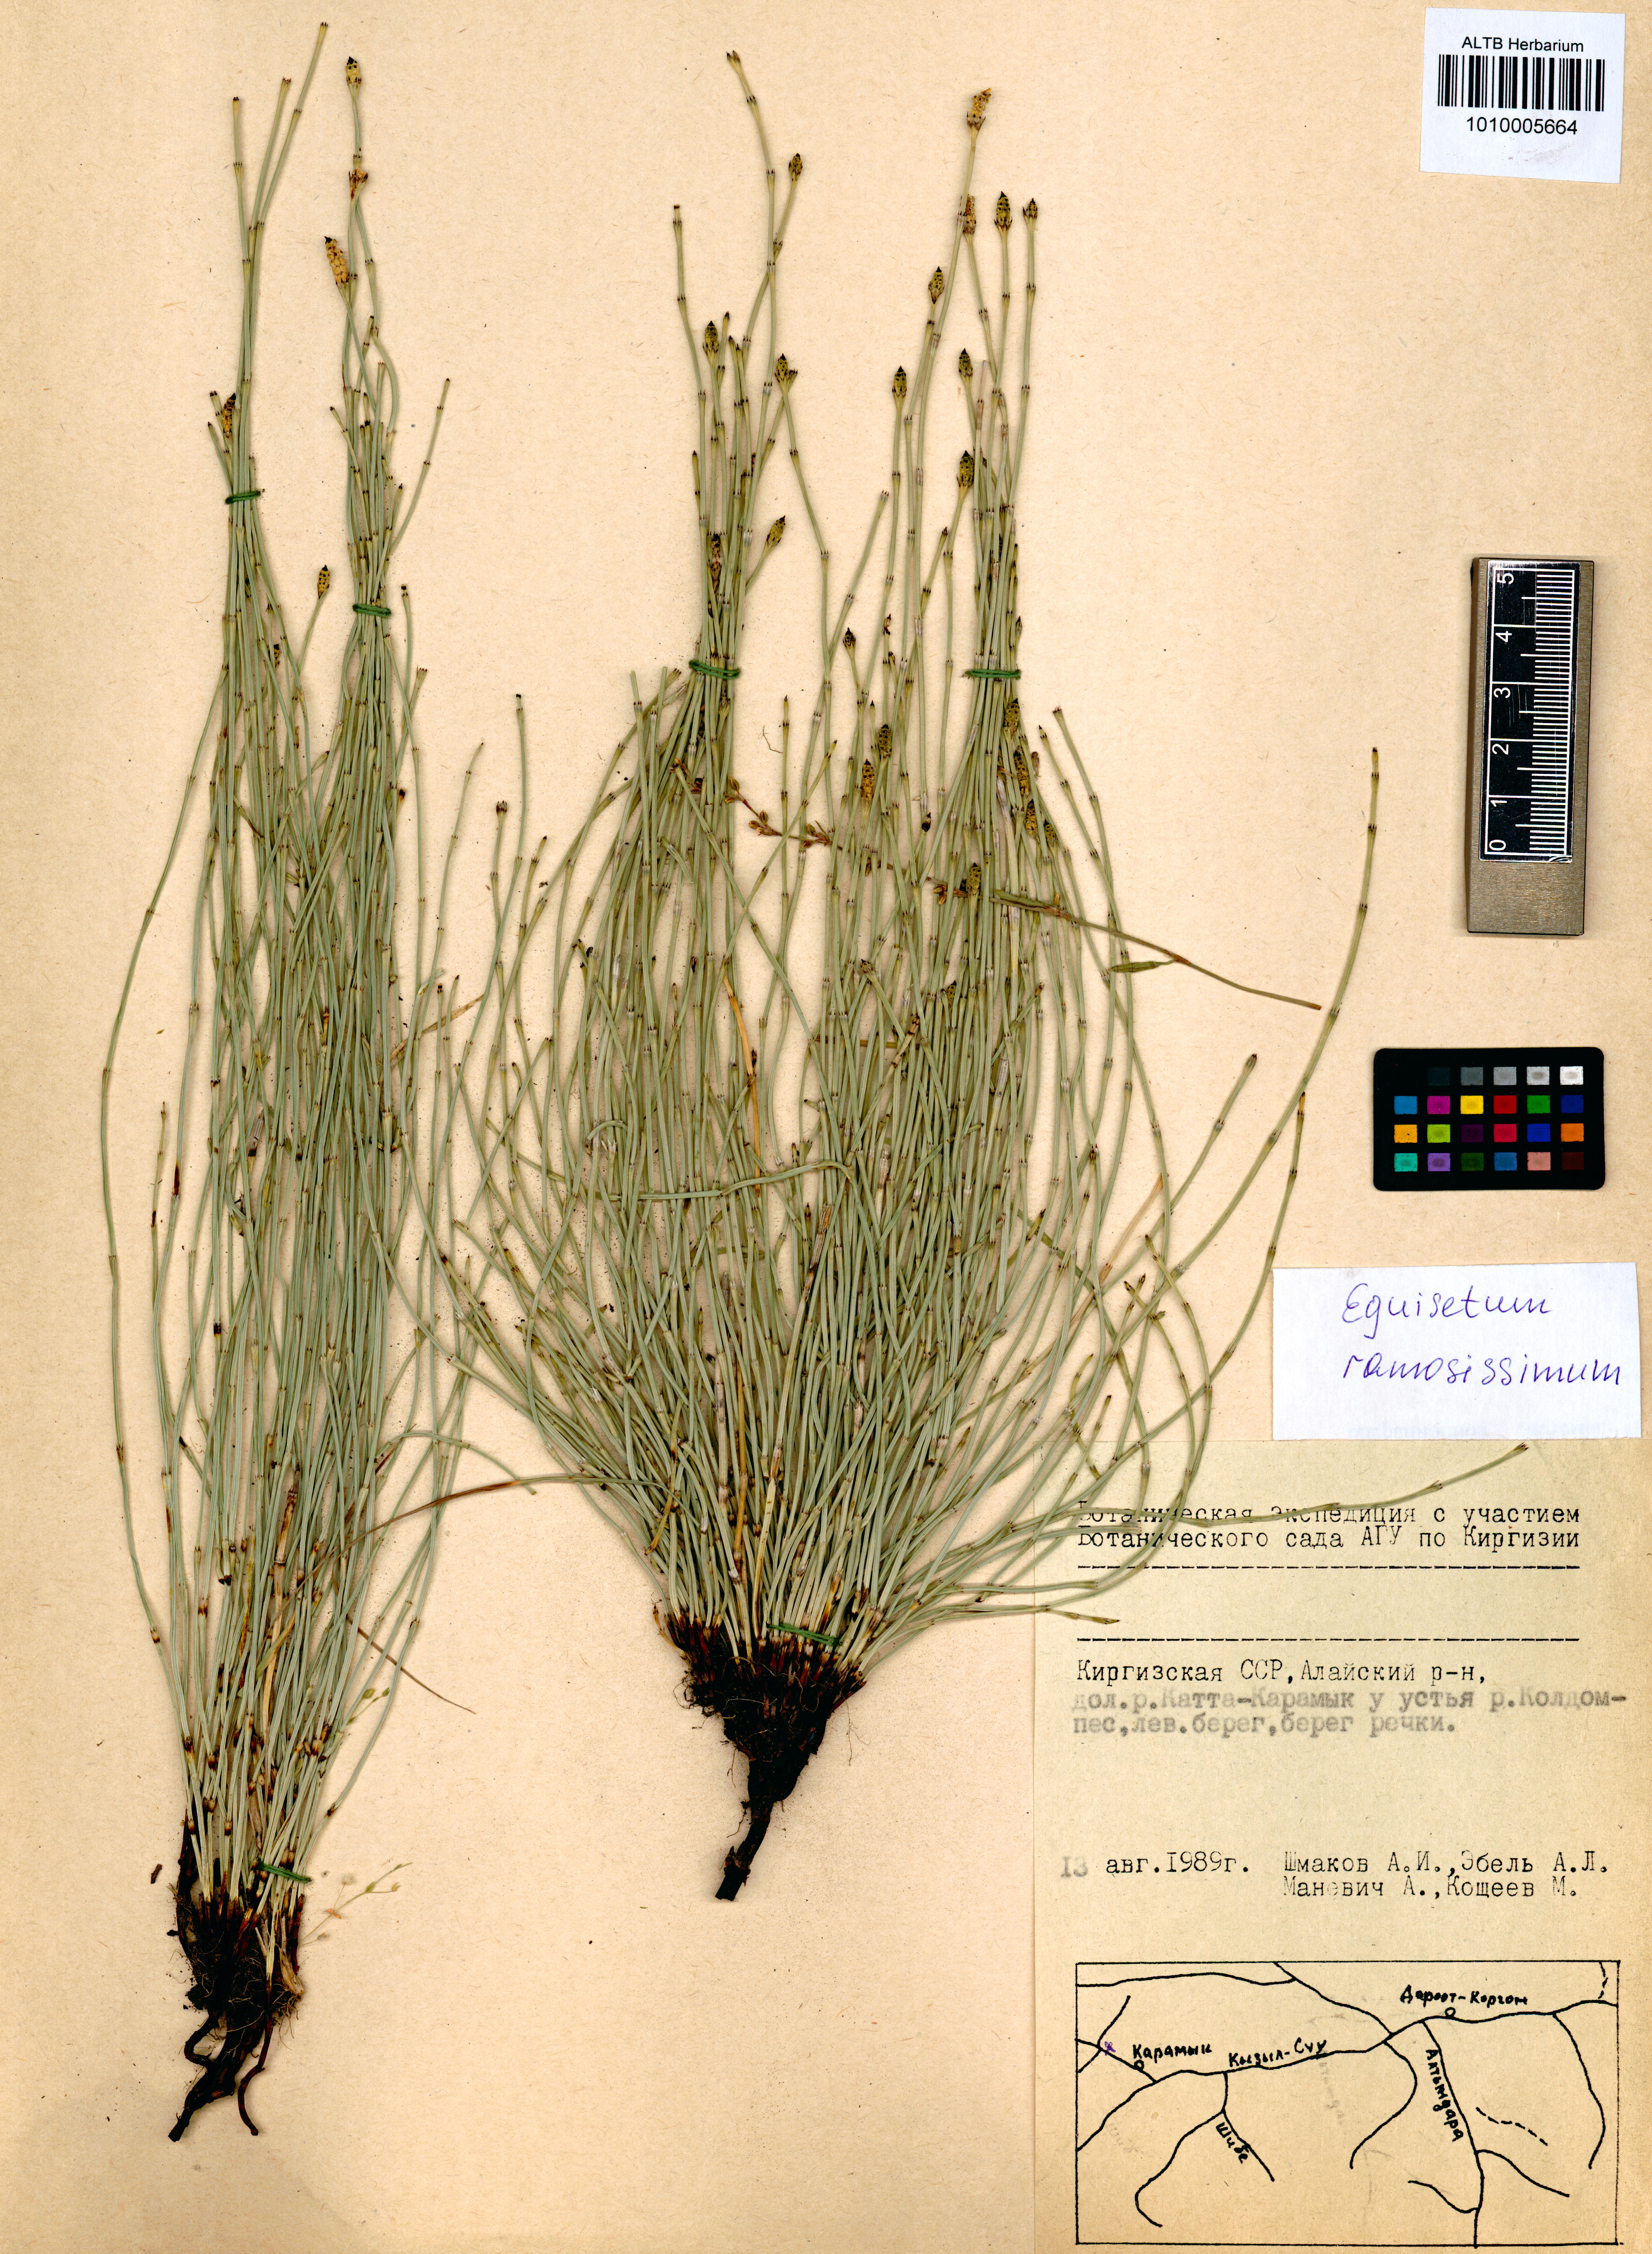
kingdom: Plantae
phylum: Tracheophyta
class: Polypodiopsida
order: Equisetales
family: Equisetaceae
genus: Equisetum
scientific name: Equisetum ramosissimum
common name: Branched horsetail
